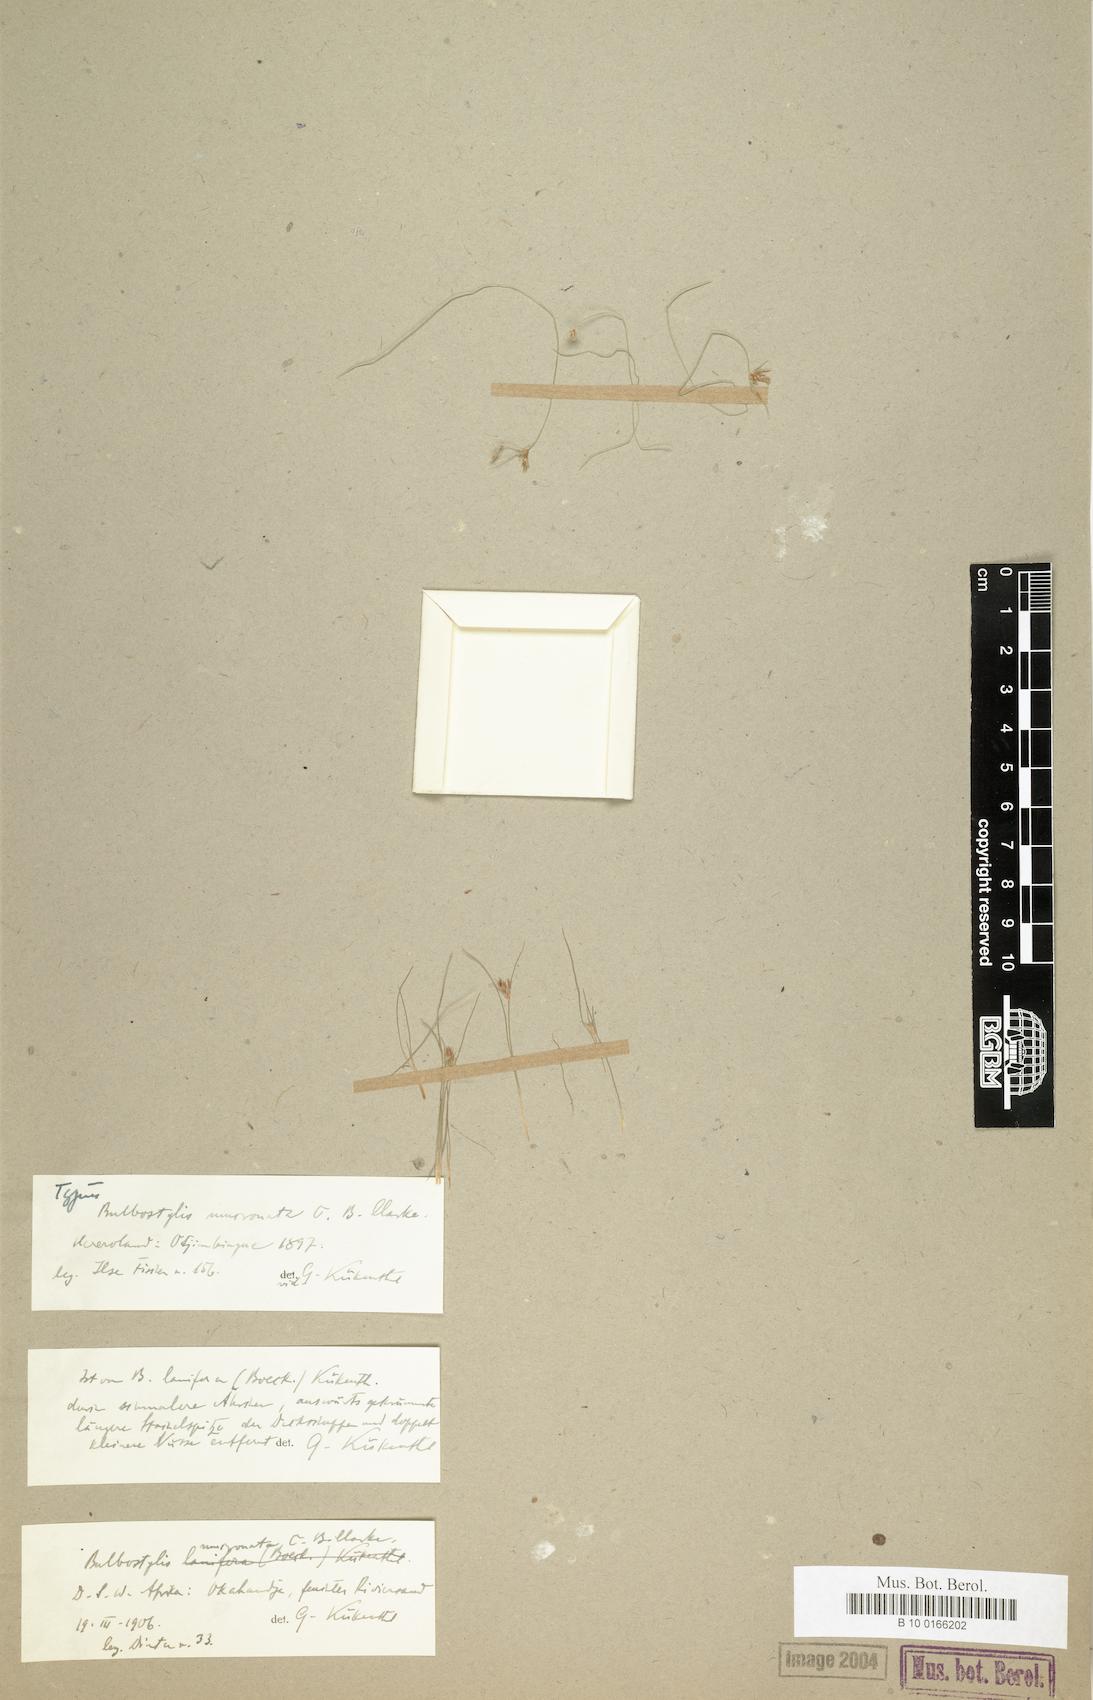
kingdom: Plantae
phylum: Tracheophyta
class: Liliopsida
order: Poales
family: Cyperaceae
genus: Bulbostylis
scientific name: Bulbostylis mucronata
